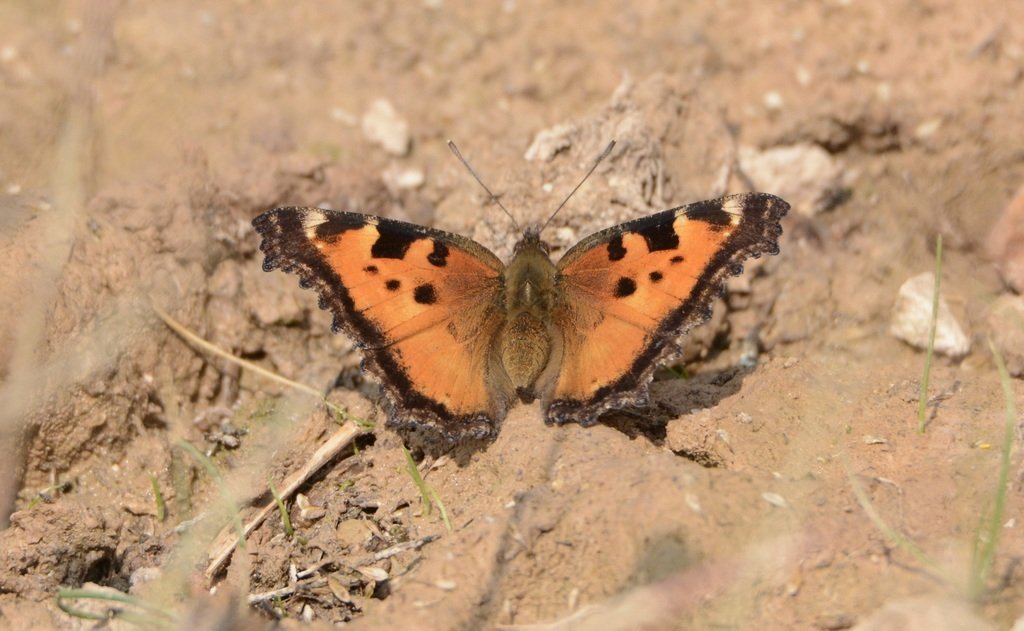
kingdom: Animalia
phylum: Arthropoda
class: Insecta
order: Lepidoptera
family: Nymphalidae
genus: Nymphalis
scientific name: Nymphalis californica
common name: California Tortoiseshell
